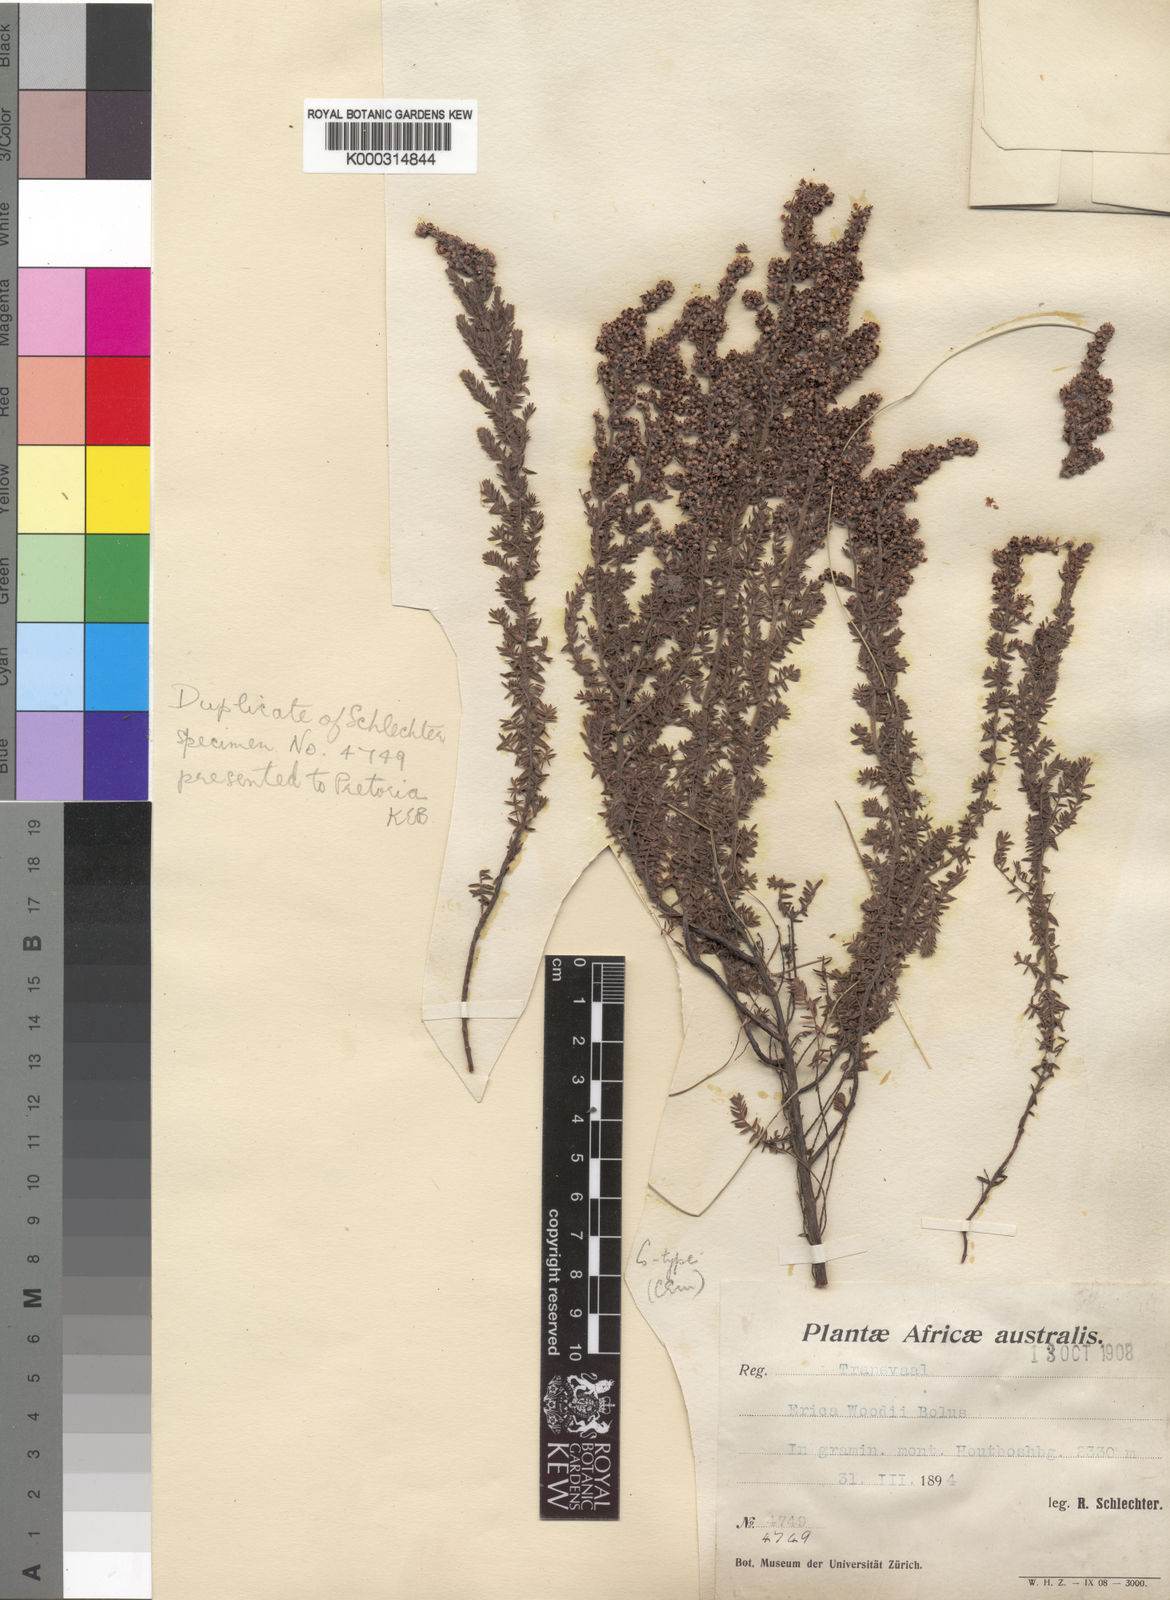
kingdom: Plantae
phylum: Tracheophyta
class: Magnoliopsida
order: Ericales
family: Ericaceae
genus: Erica
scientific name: Erica woodii
